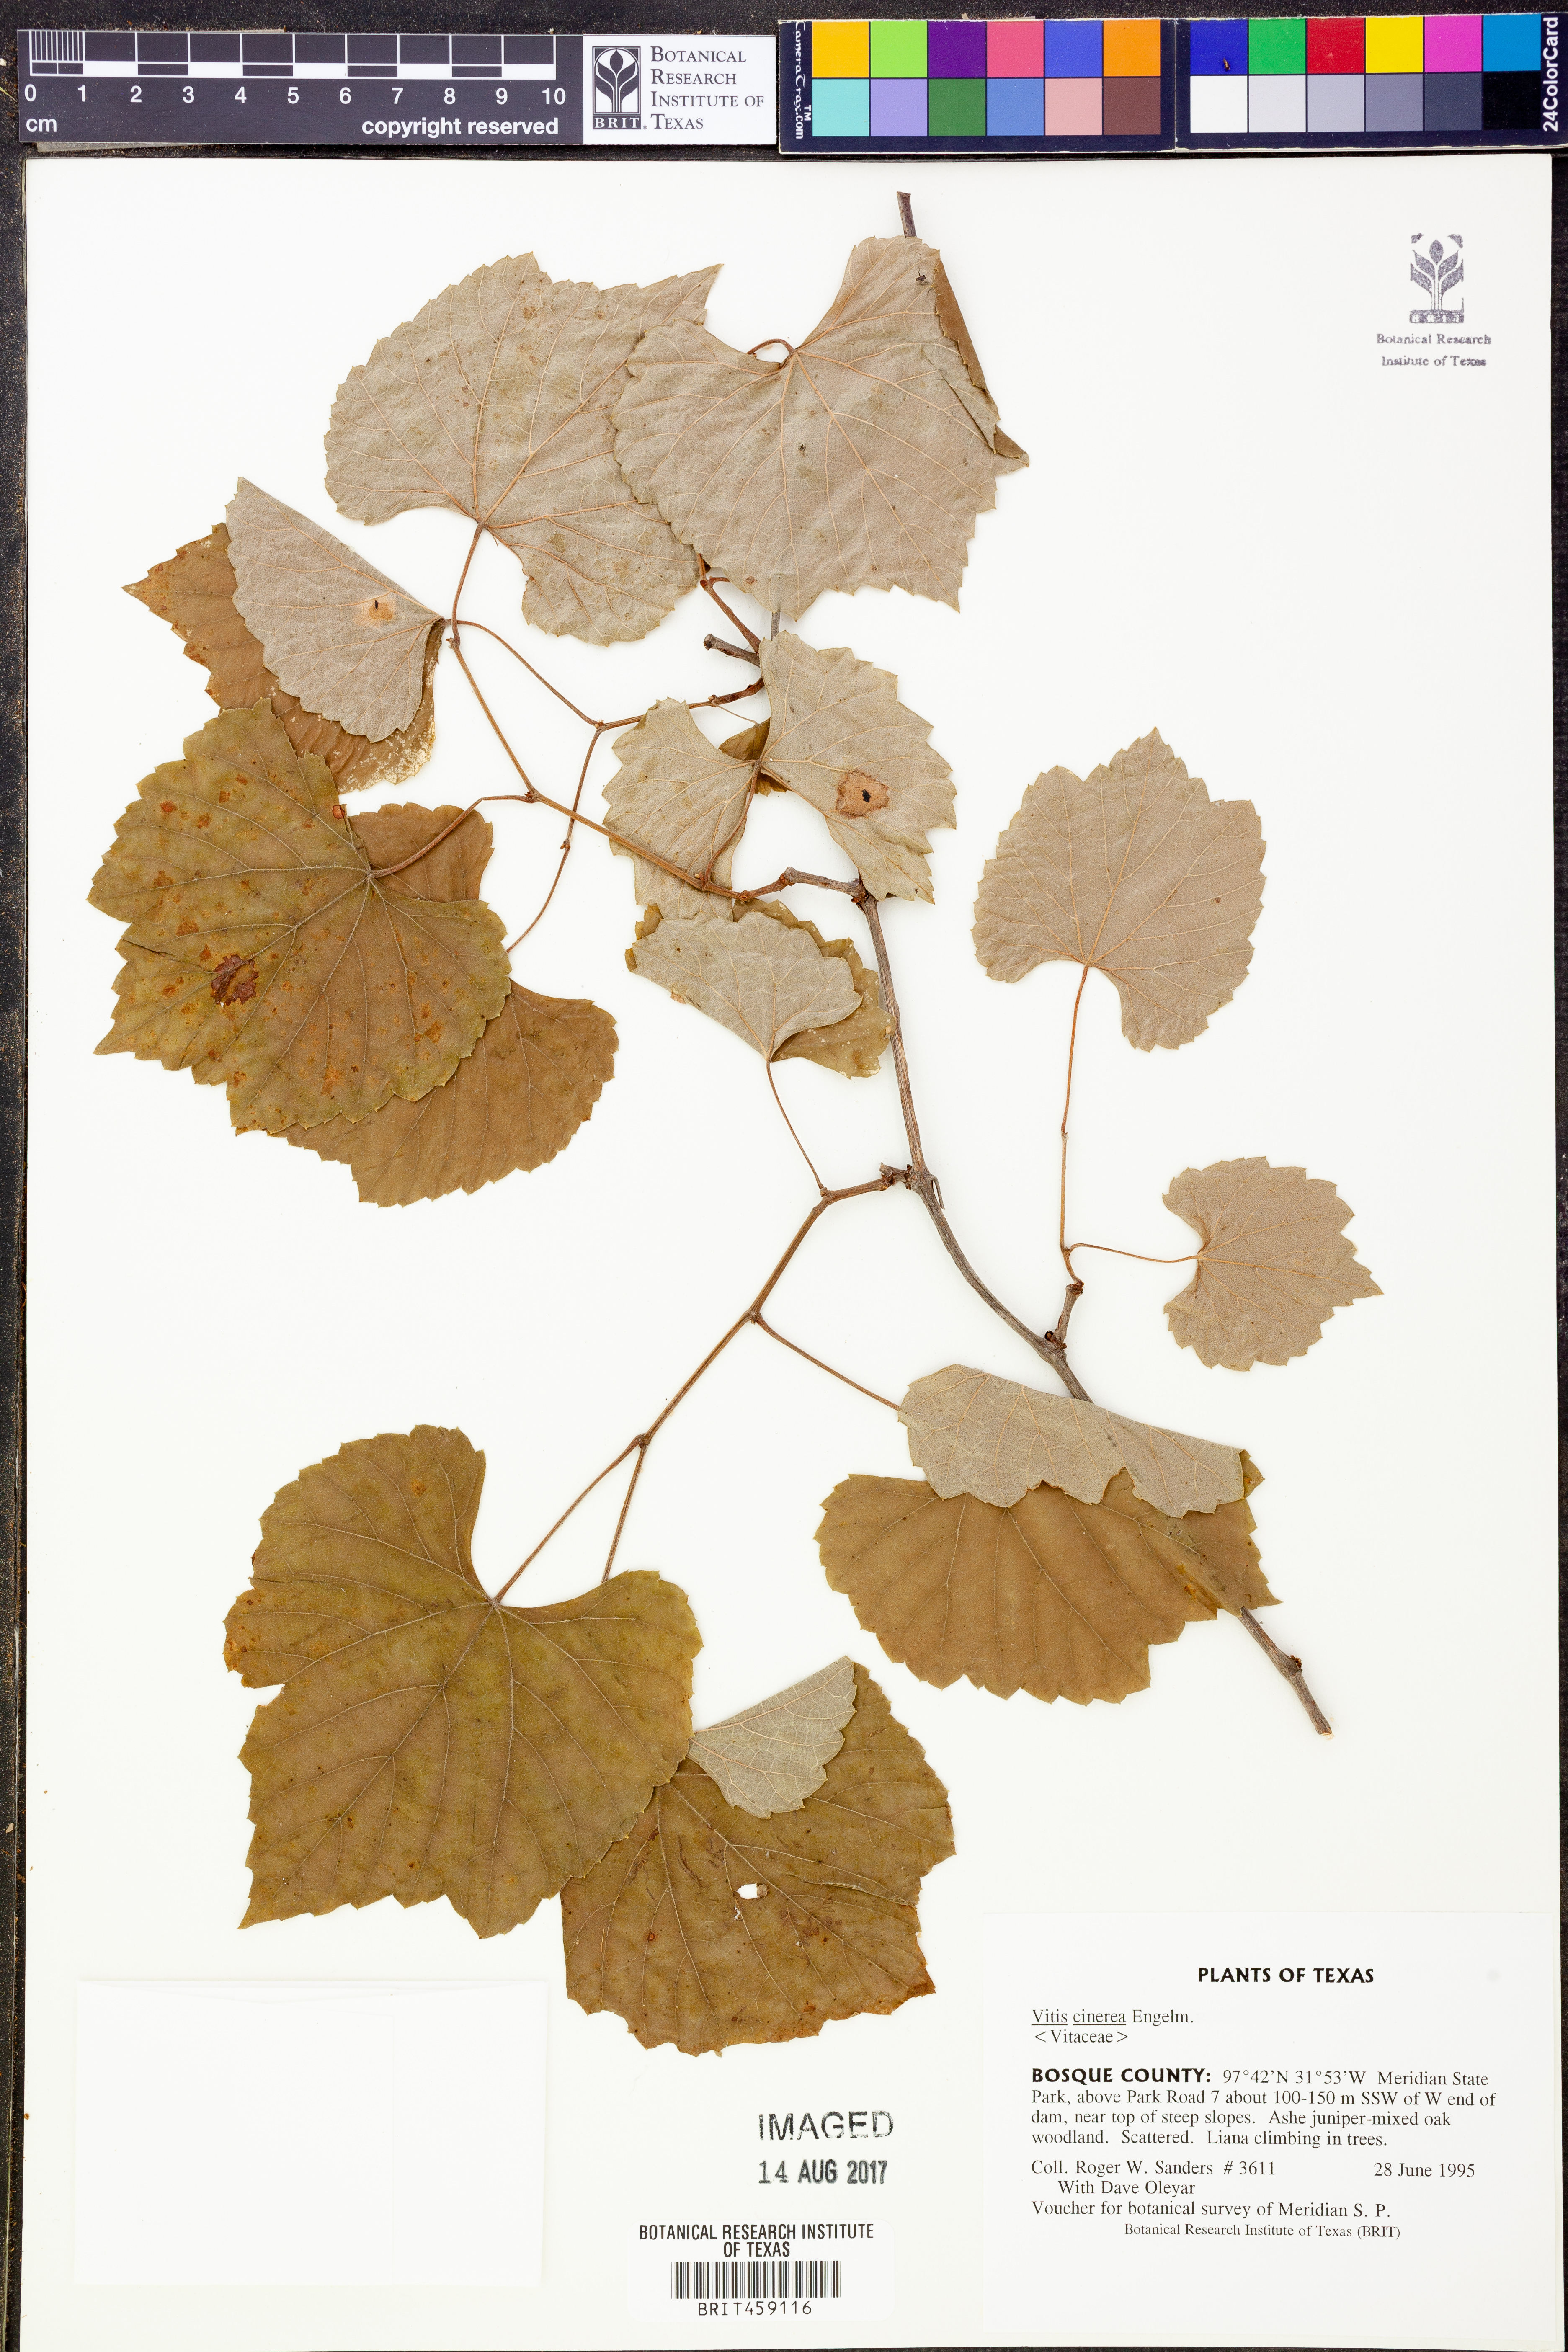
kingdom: Plantae
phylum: Tracheophyta
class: Magnoliopsida
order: Vitales
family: Vitaceae
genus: Vitis
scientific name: Vitis cinerea
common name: Ashy grape
